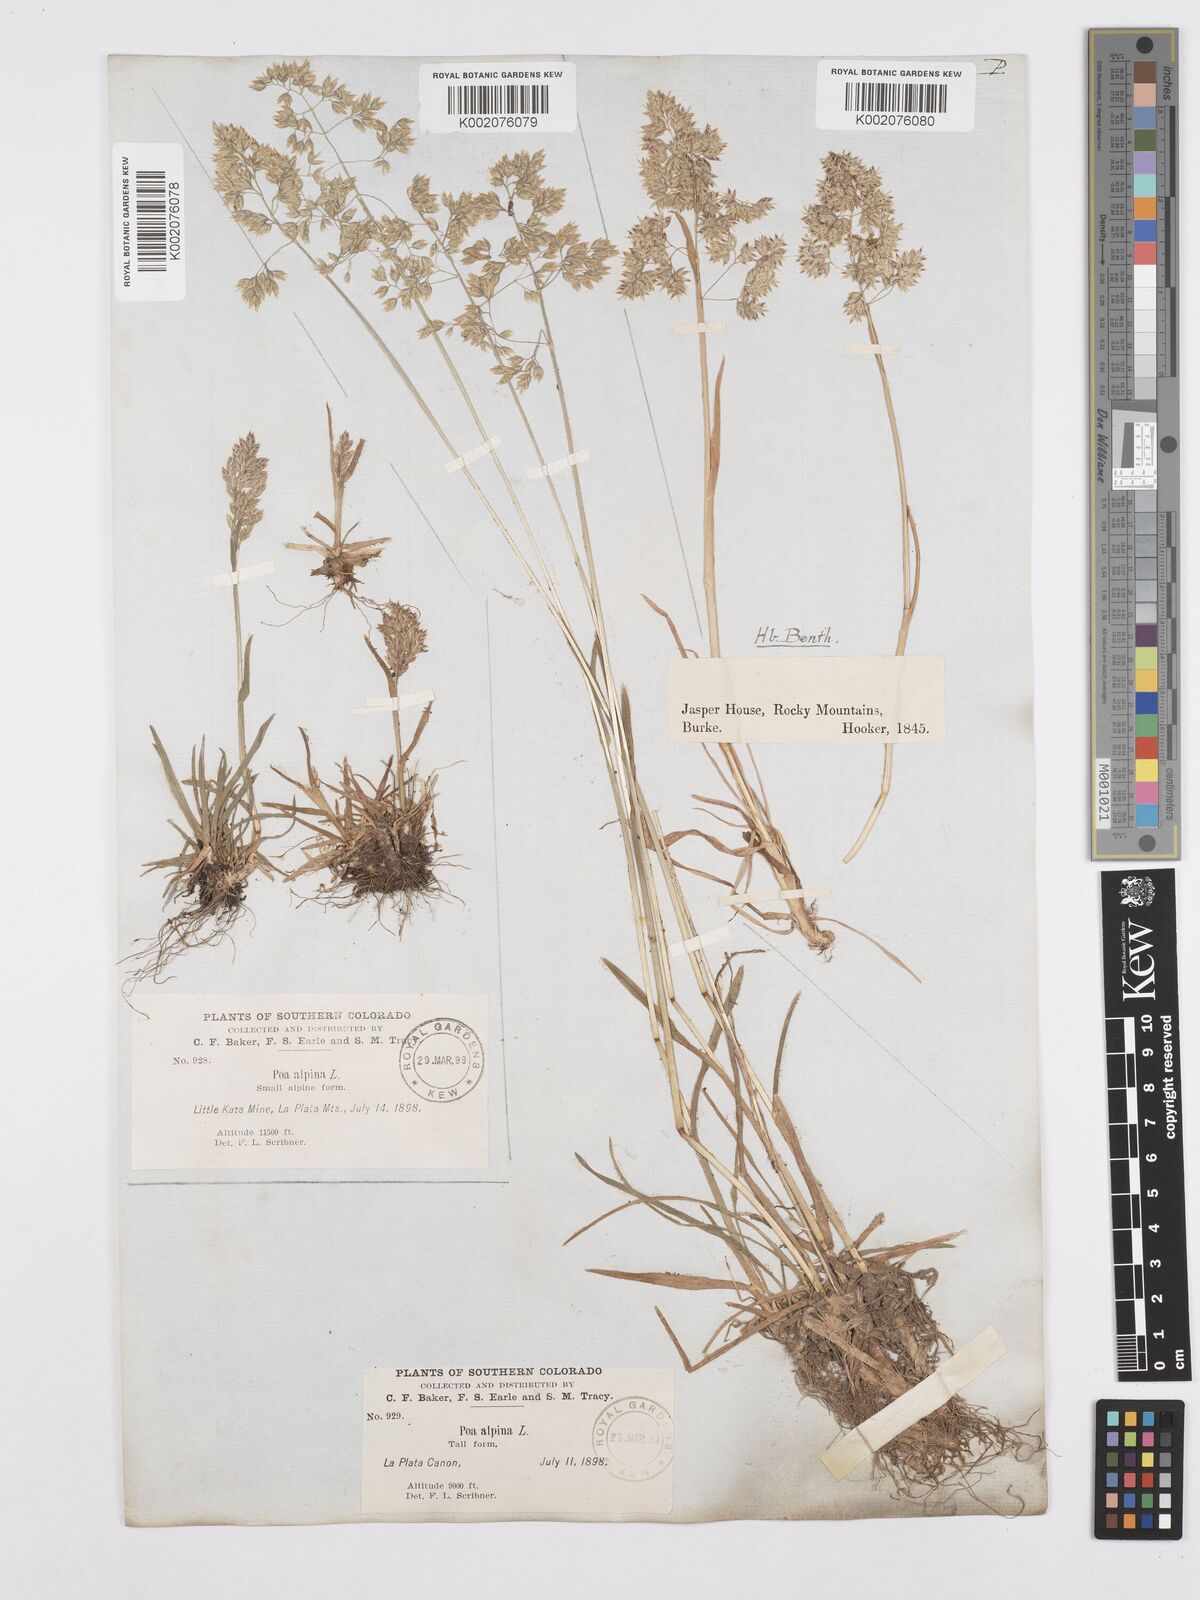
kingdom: Plantae
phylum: Tracheophyta
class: Liliopsida
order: Poales
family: Poaceae
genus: Poa
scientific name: Poa alpina
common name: Alpine bluegrass
